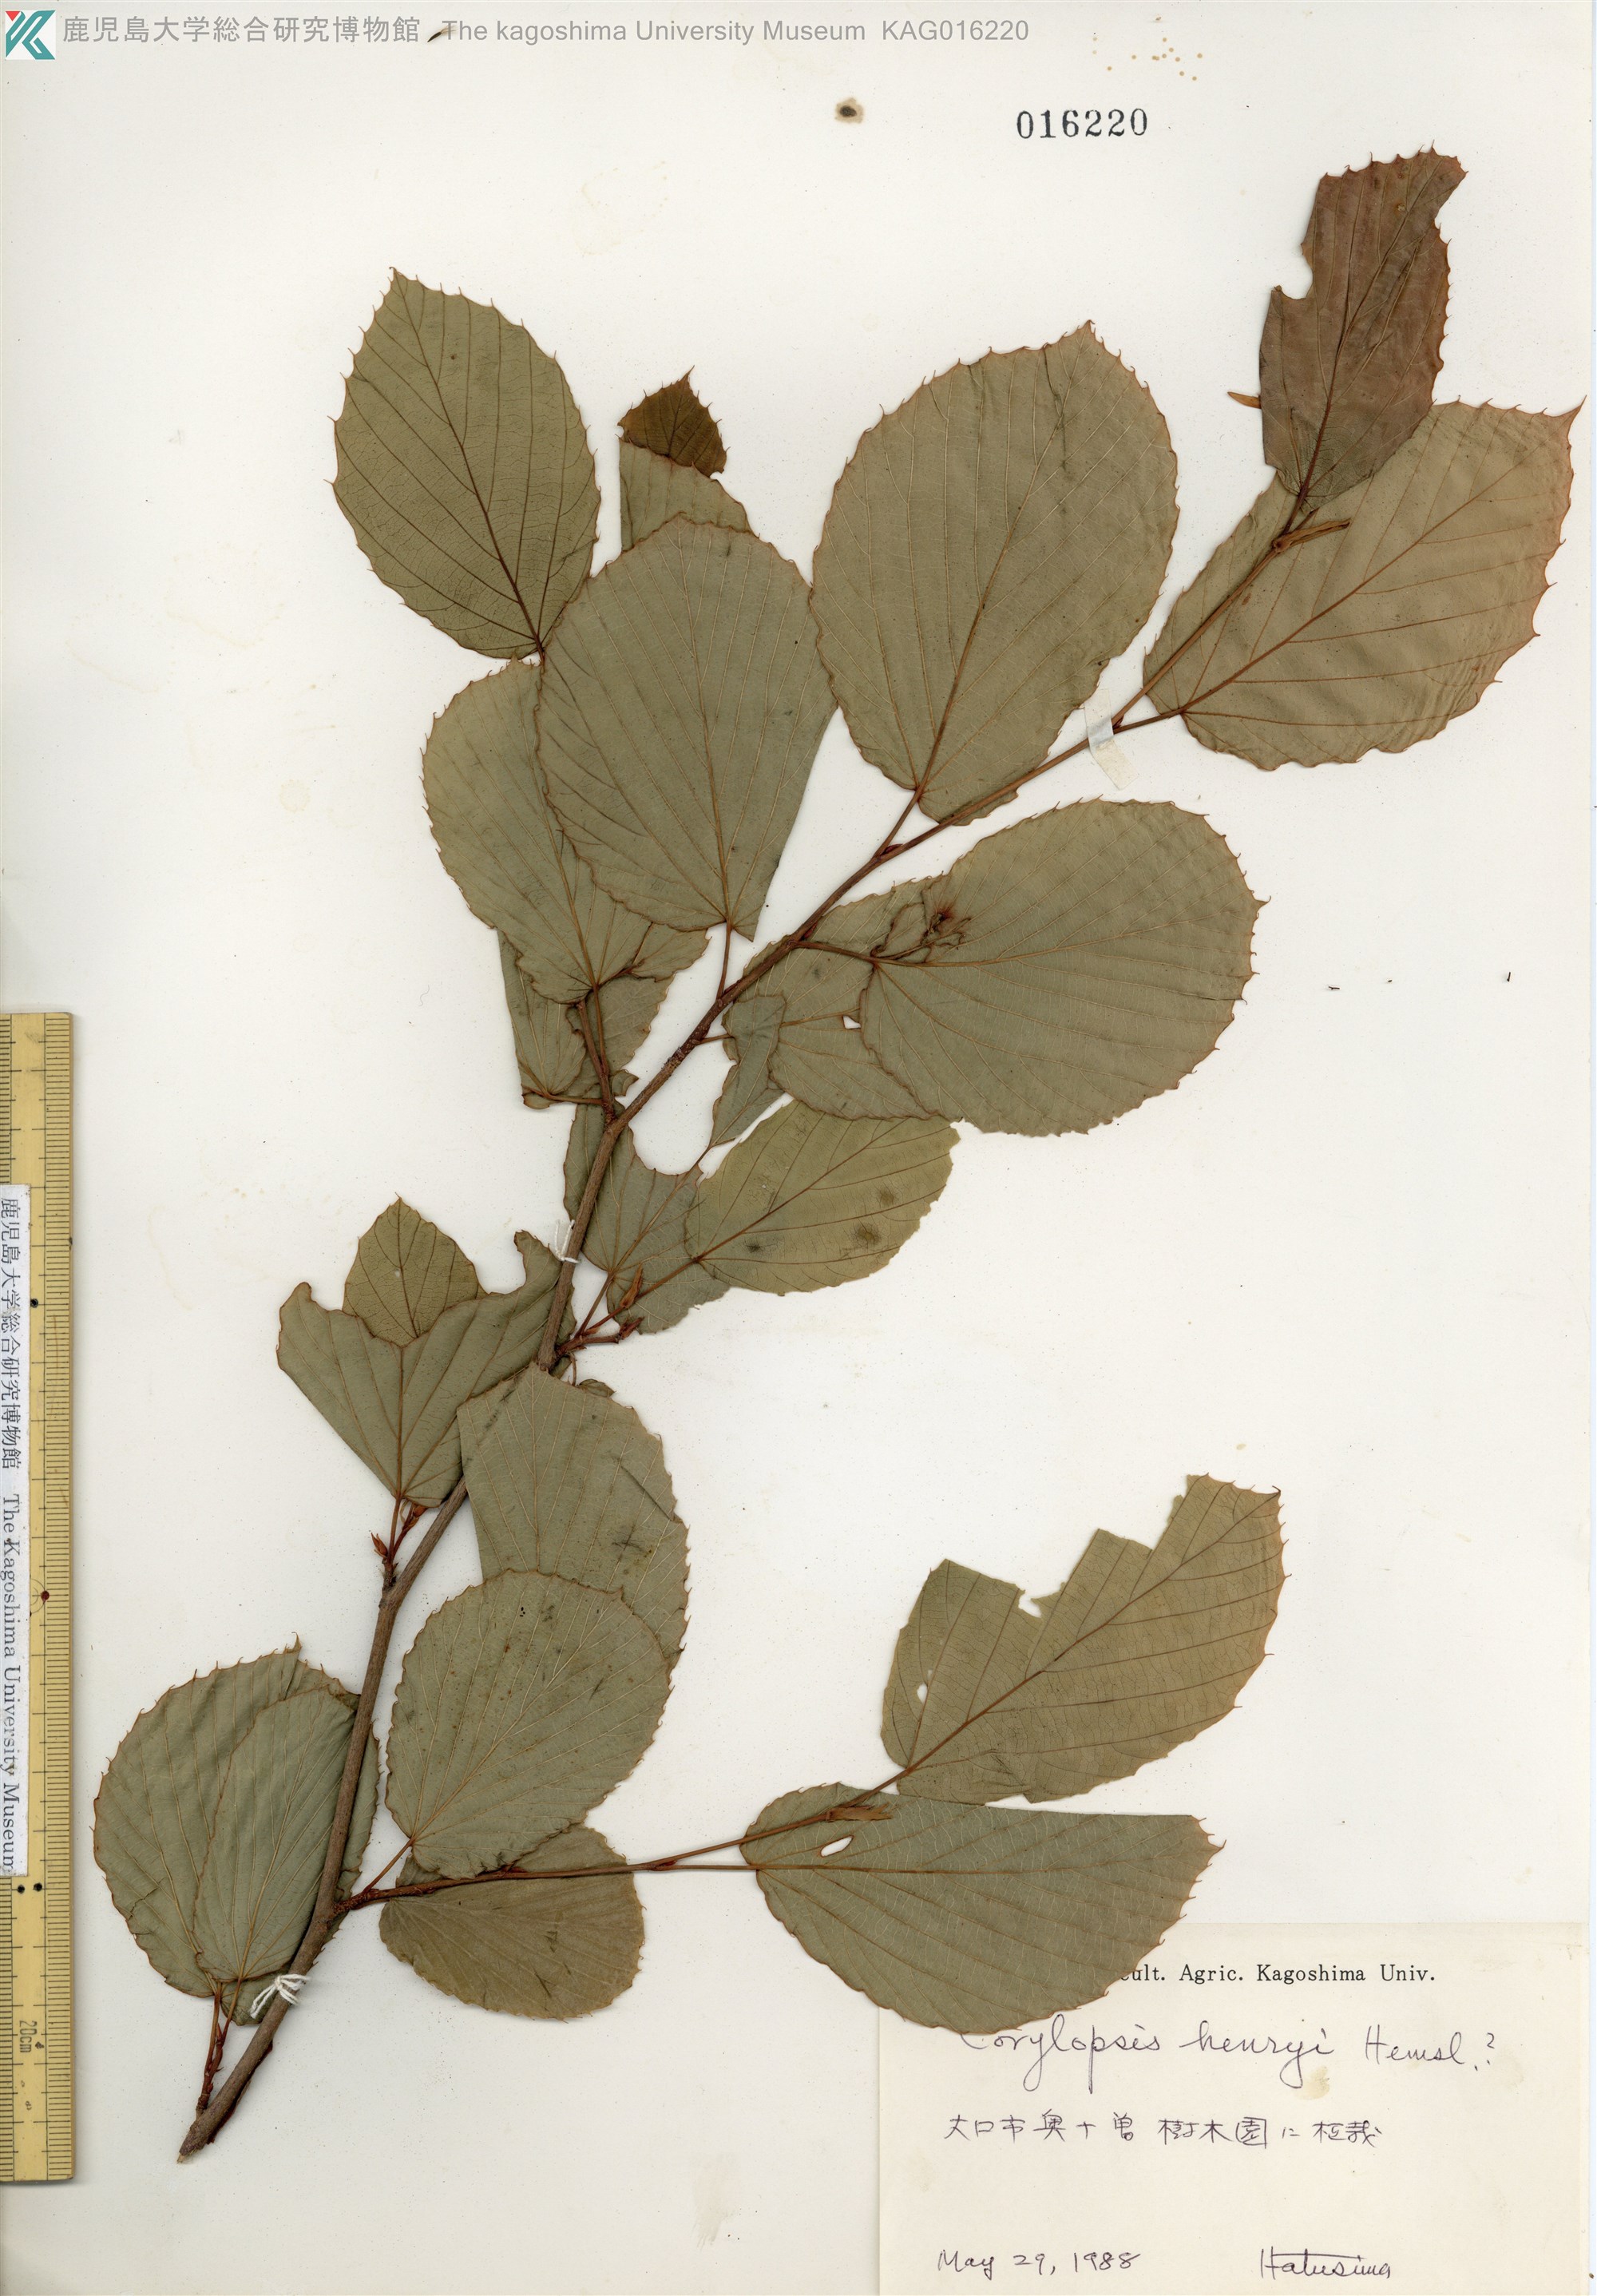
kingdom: Plantae
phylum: Tracheophyta
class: Magnoliopsida
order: Saxifragales
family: Hamamelidaceae
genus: Corylopsis
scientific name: Corylopsis henryi
